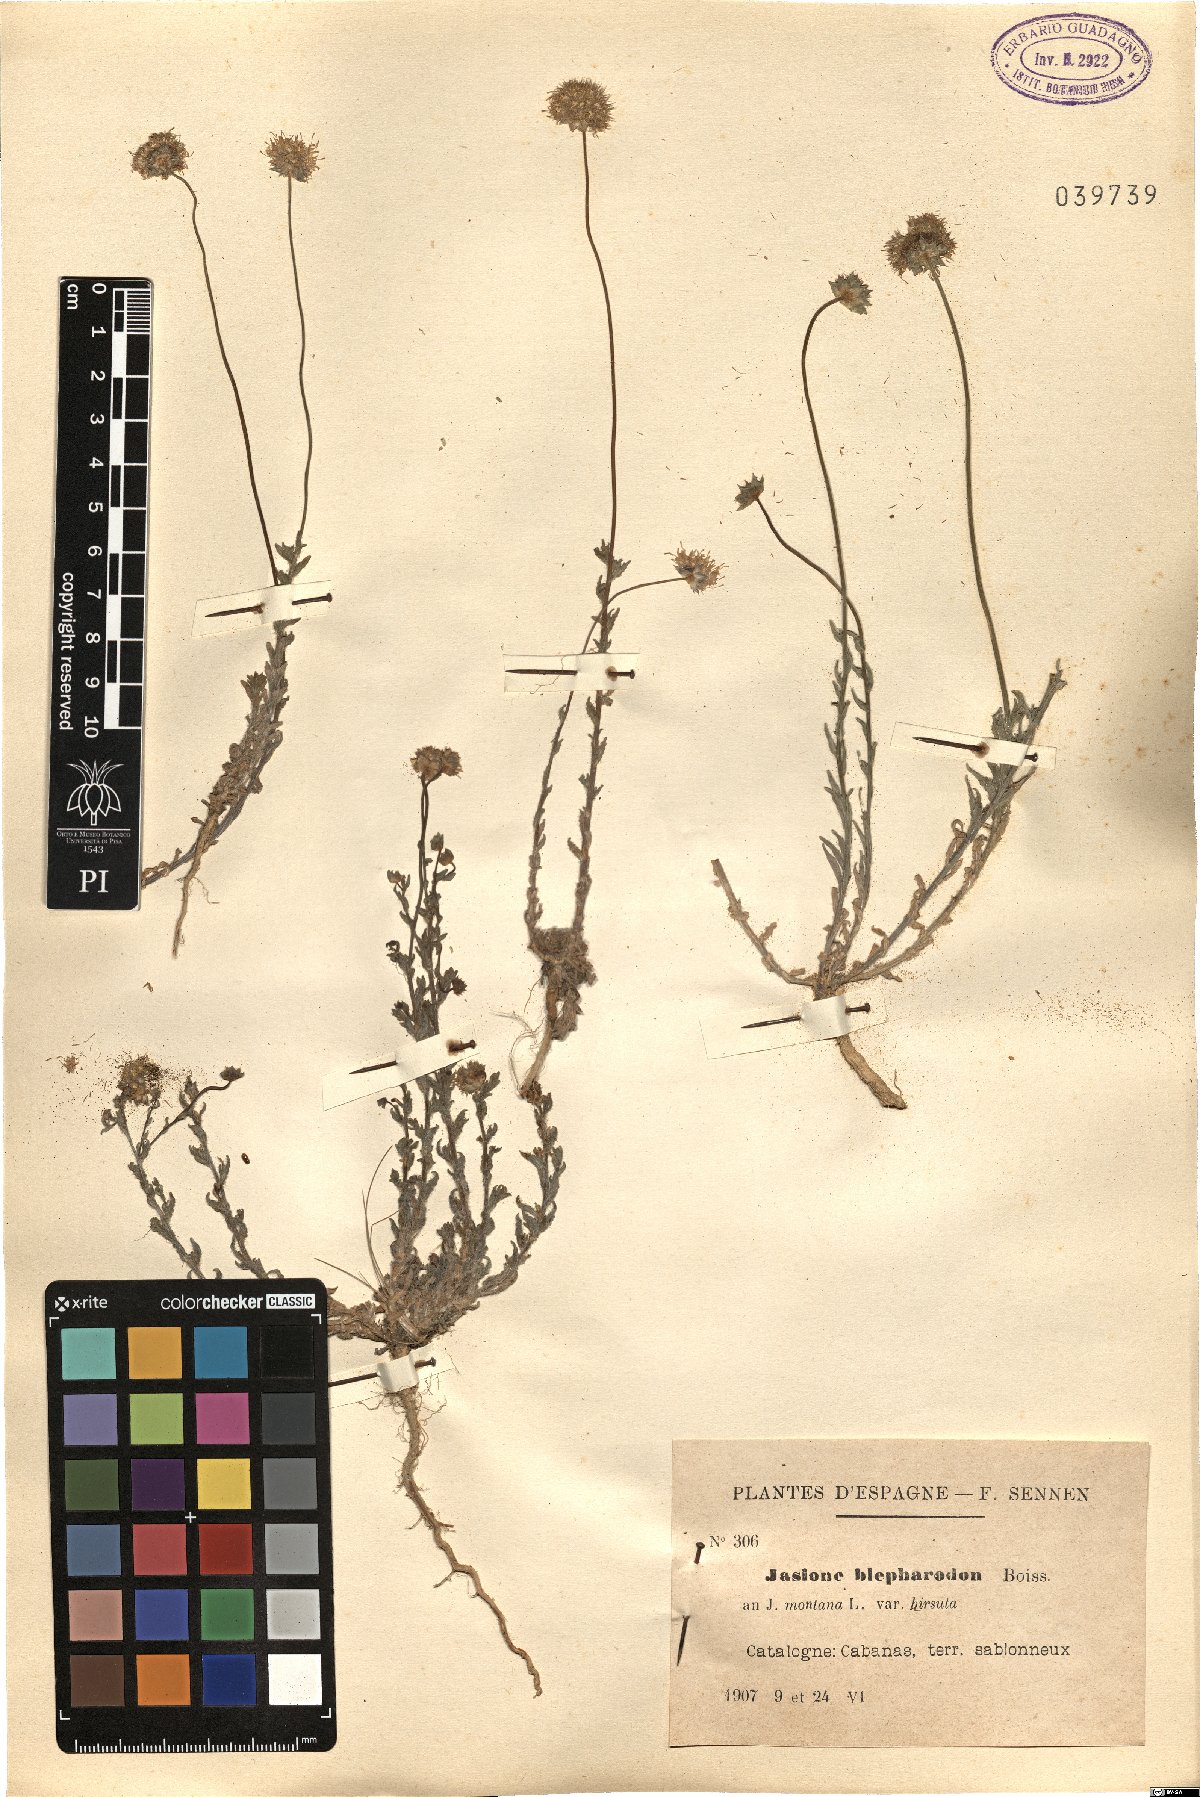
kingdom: Plantae
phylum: Tracheophyta
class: Magnoliopsida
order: Asterales
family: Campanulaceae
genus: Jasione
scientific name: Jasione montana
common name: Sheep's-bit
